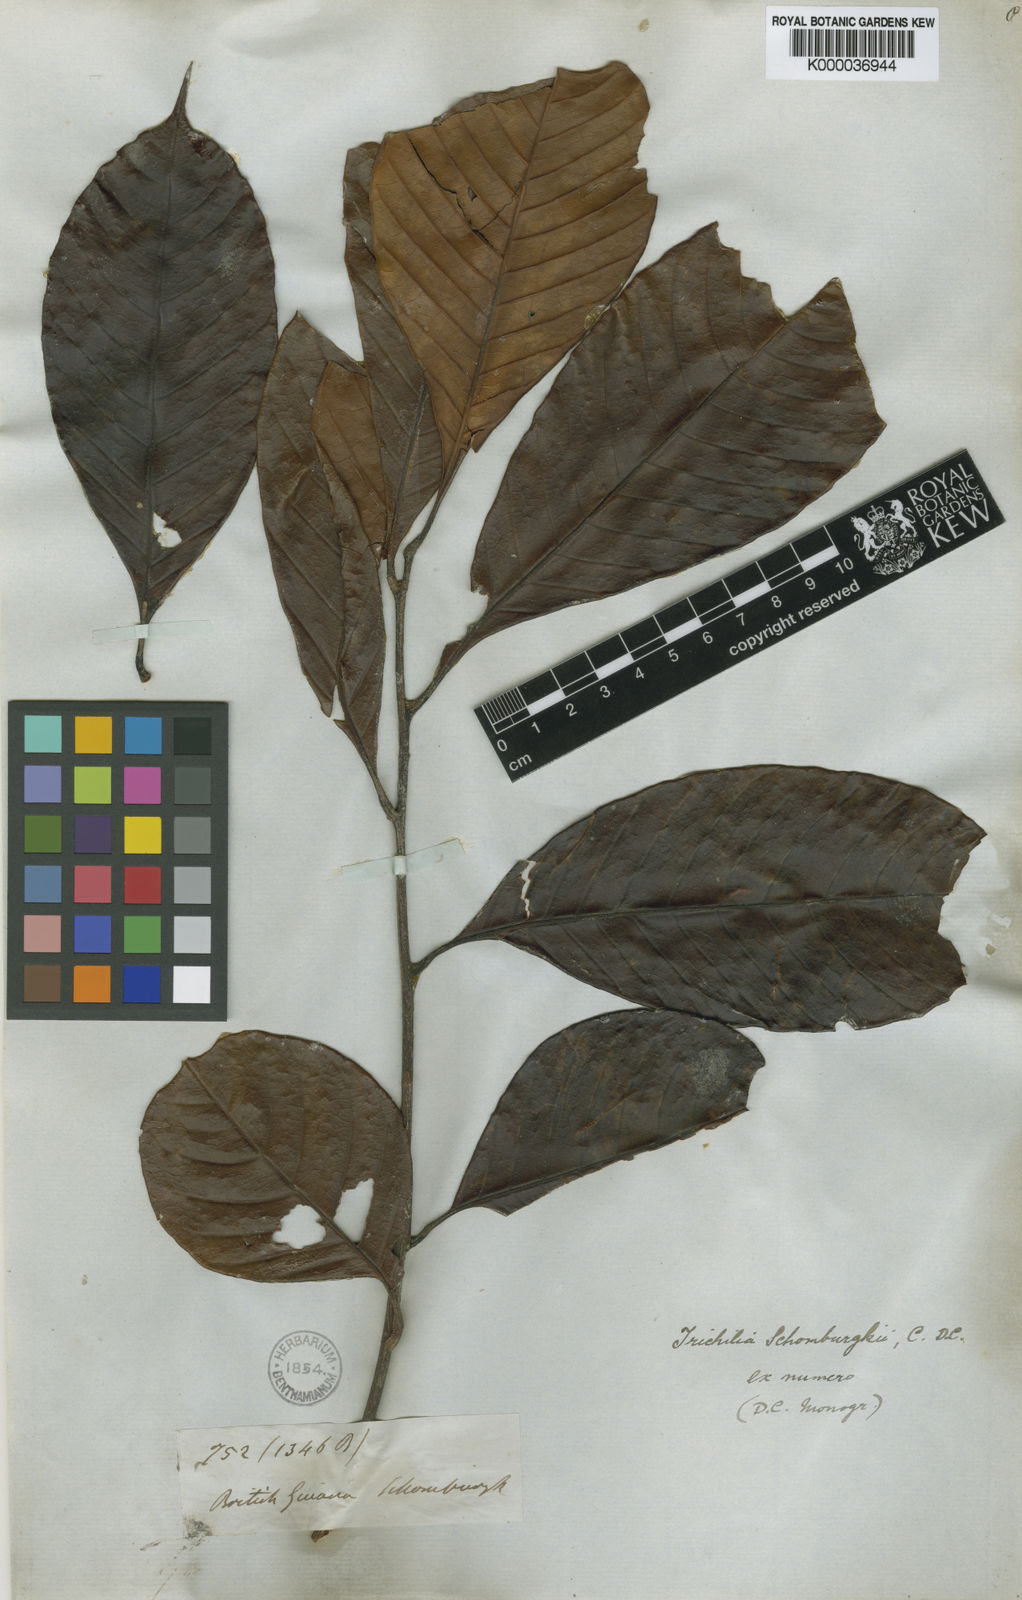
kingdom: Plantae
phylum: Tracheophyta
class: Magnoliopsida
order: Sapindales
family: Meliaceae
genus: Trichilia
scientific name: Trichilia schomburgkii
